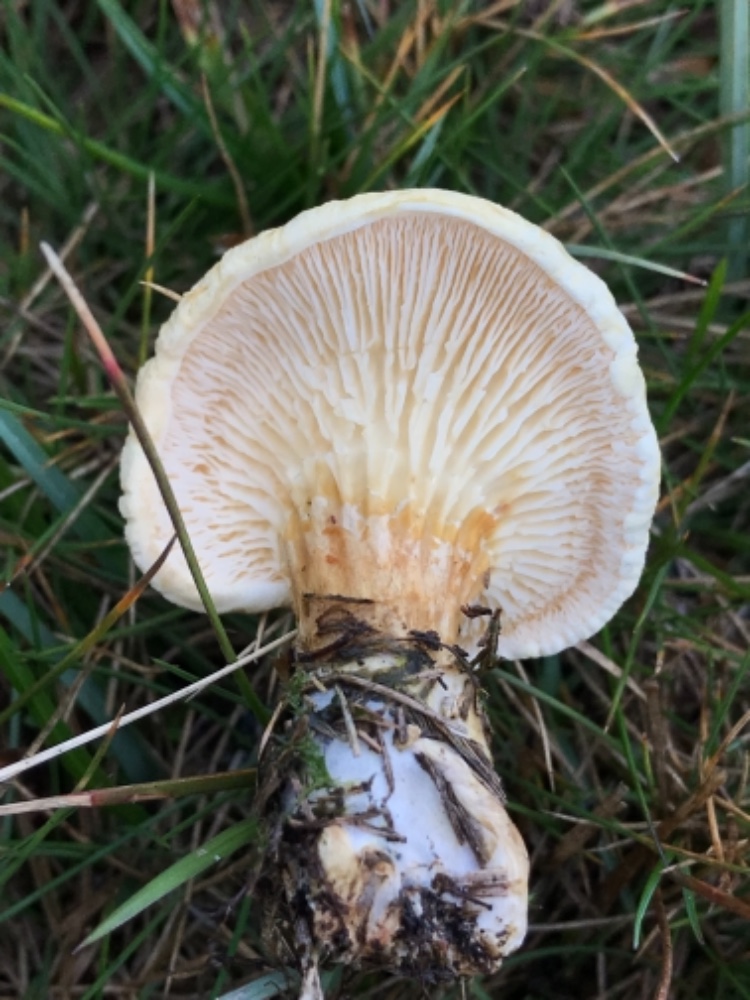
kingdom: Fungi
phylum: Basidiomycota
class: Agaricomycetes
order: Boletales
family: Hygrophoropsidaceae
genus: Hygrophoropsis
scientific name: Hygrophoropsis pallida
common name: bleg orangekantarel
